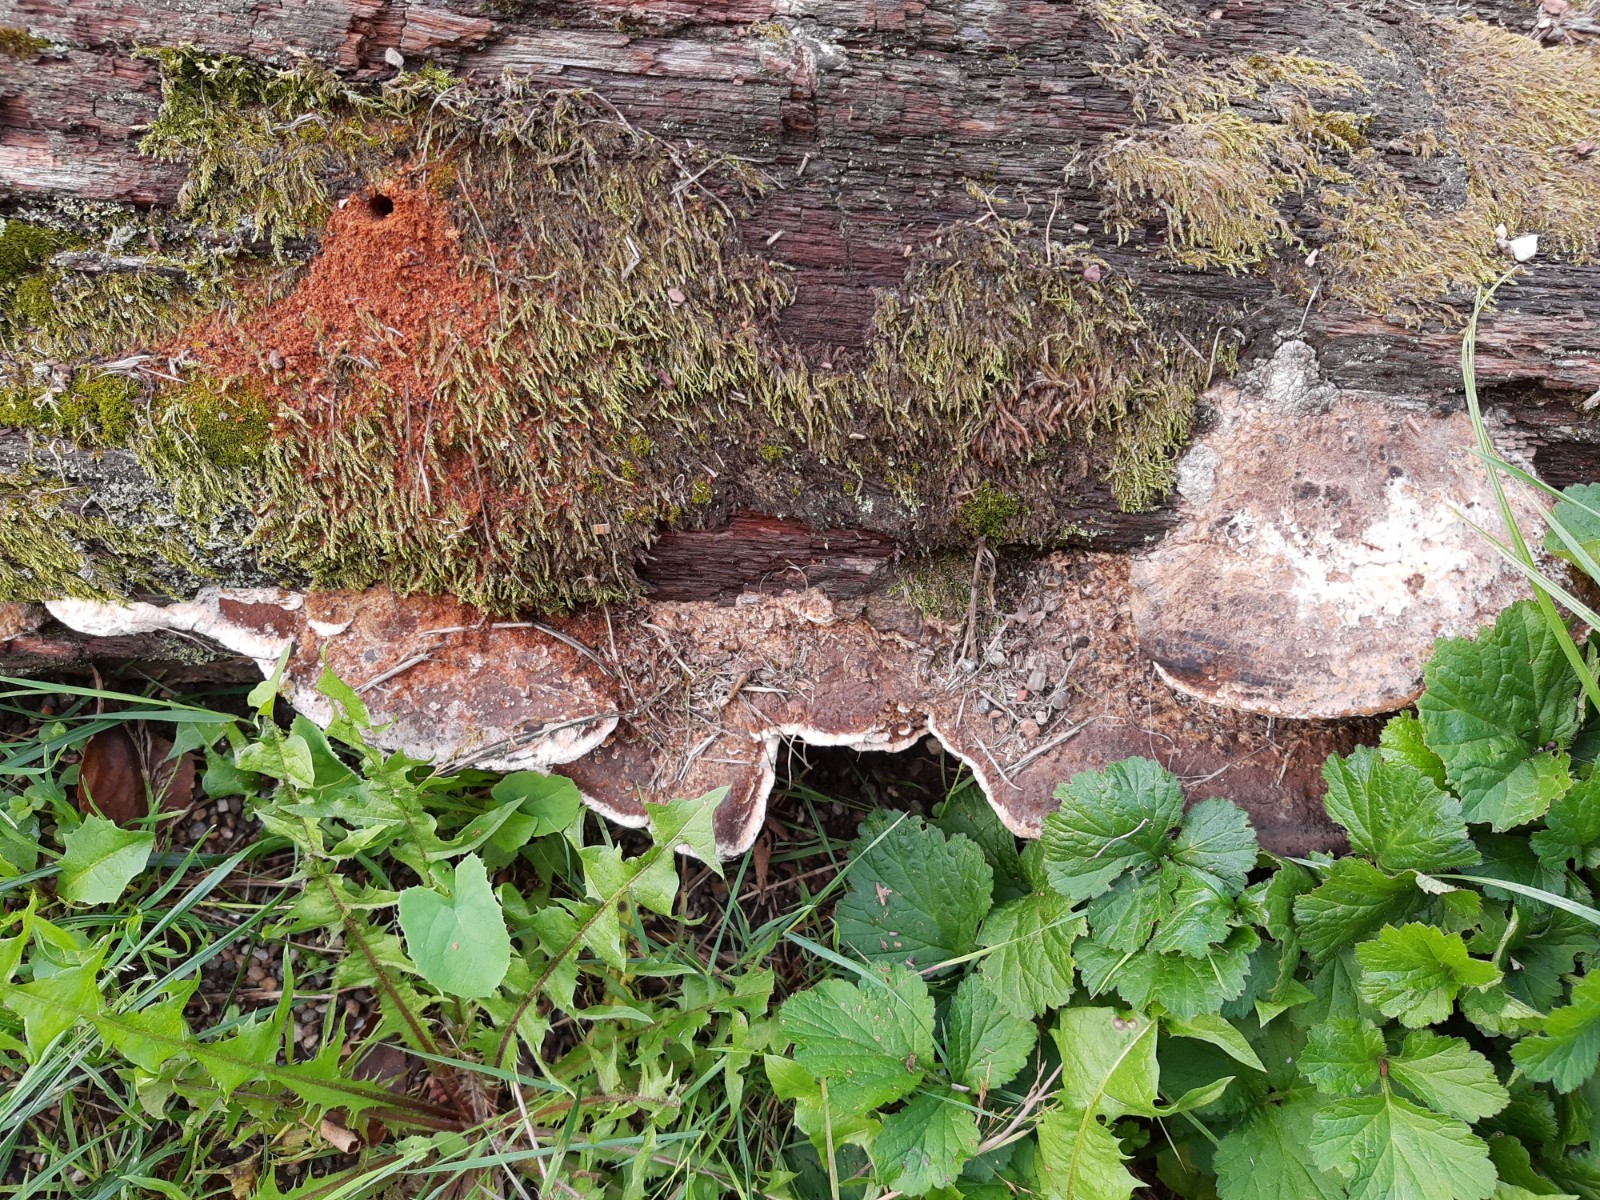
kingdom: Fungi
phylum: Basidiomycota
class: Agaricomycetes
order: Polyporales
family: Fomitopsidaceae
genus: Daedalea
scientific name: Daedalea quercina
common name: ege-labyrintsvamp
